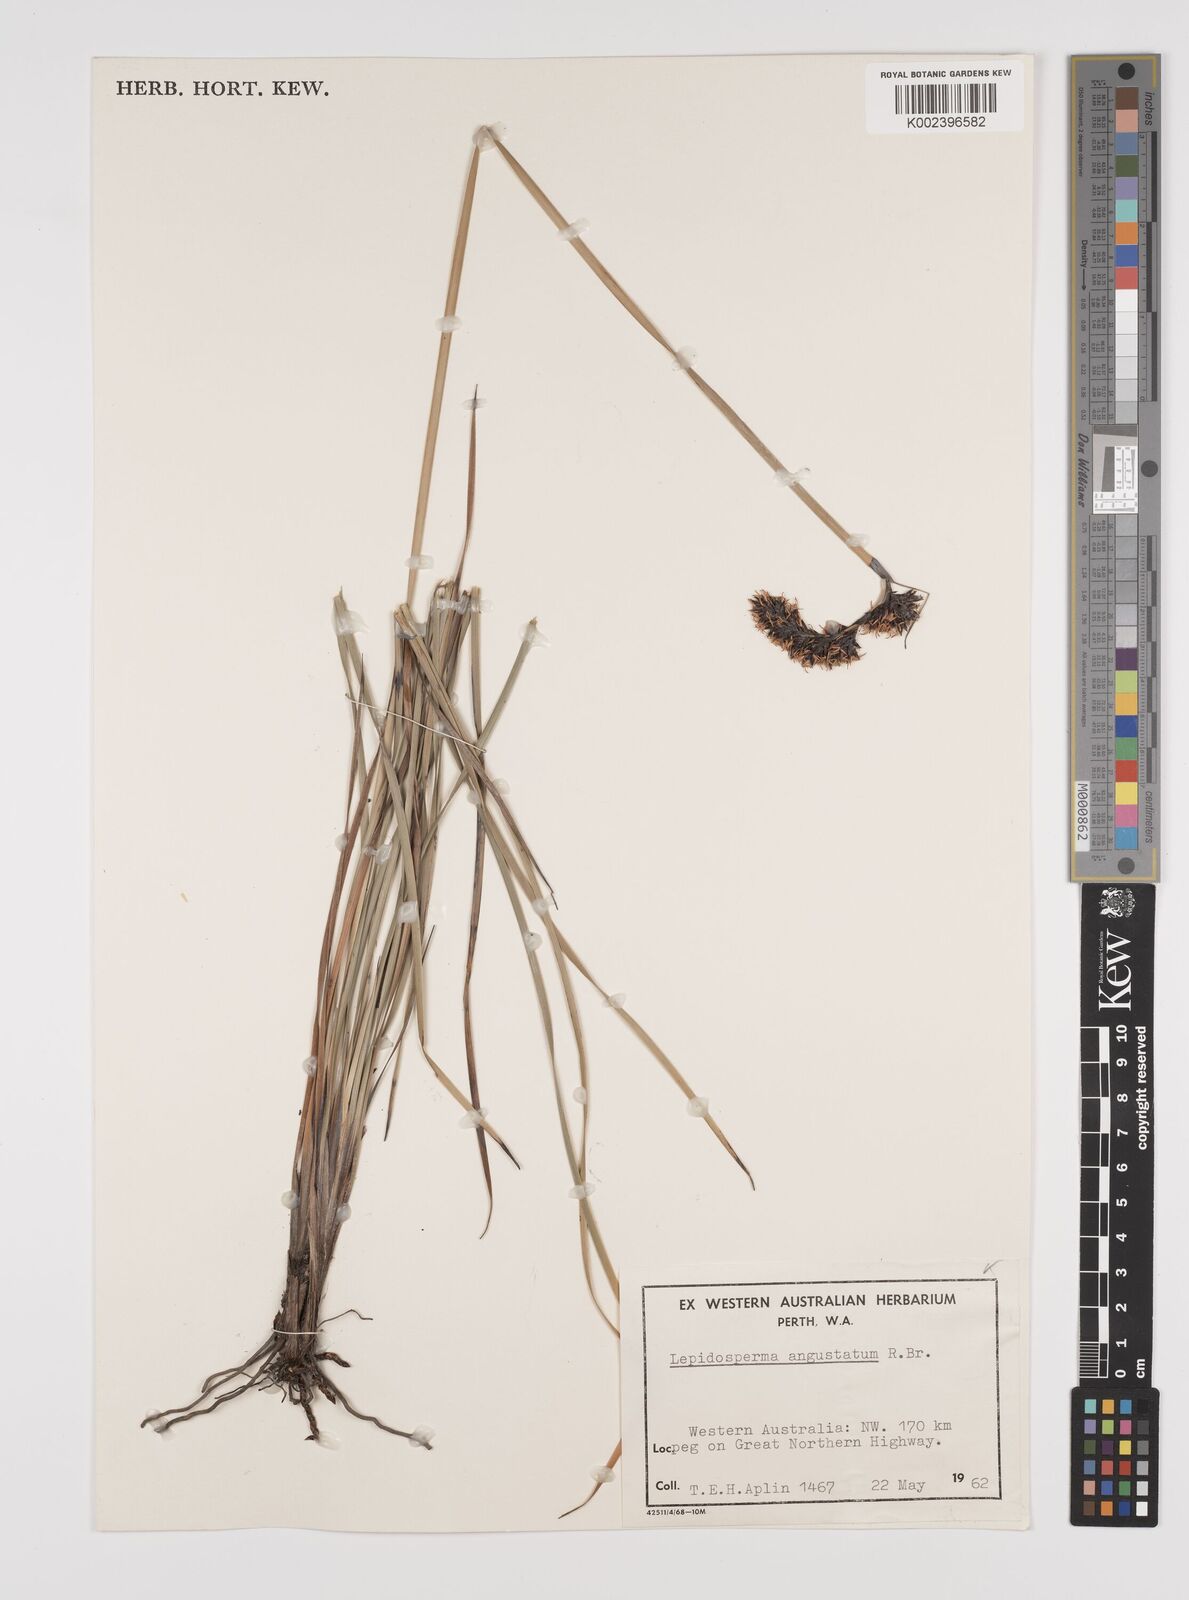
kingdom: Plantae
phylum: Tracheophyta
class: Liliopsida
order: Poales
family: Cyperaceae
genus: Lepidosperma
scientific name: Lepidosperma angustatum
